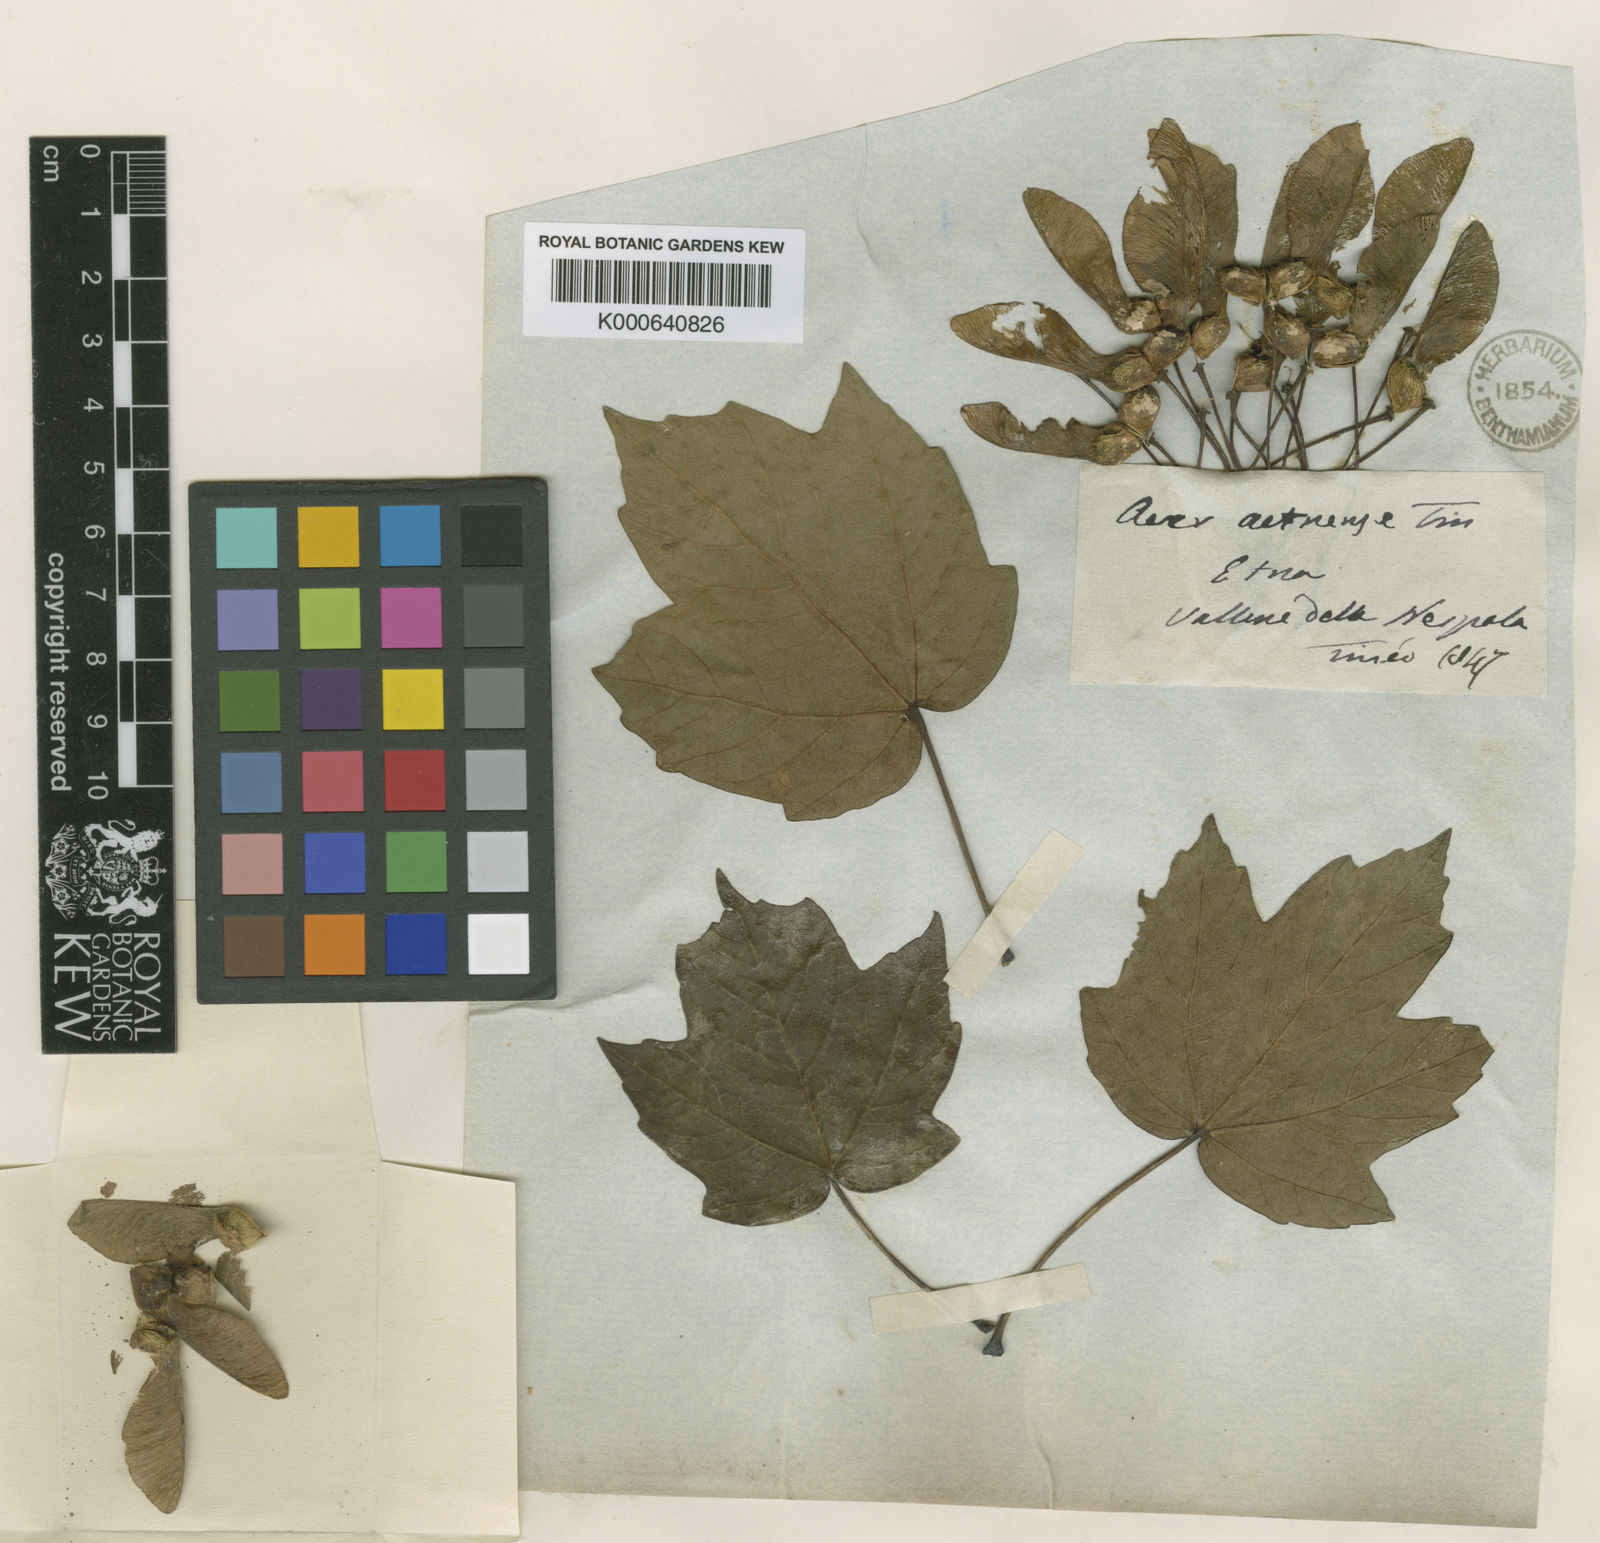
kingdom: Plantae
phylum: Tracheophyta
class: Magnoliopsida
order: Sapindales
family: Sapindaceae
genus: Acer
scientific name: Acer opalus
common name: Italian maple
